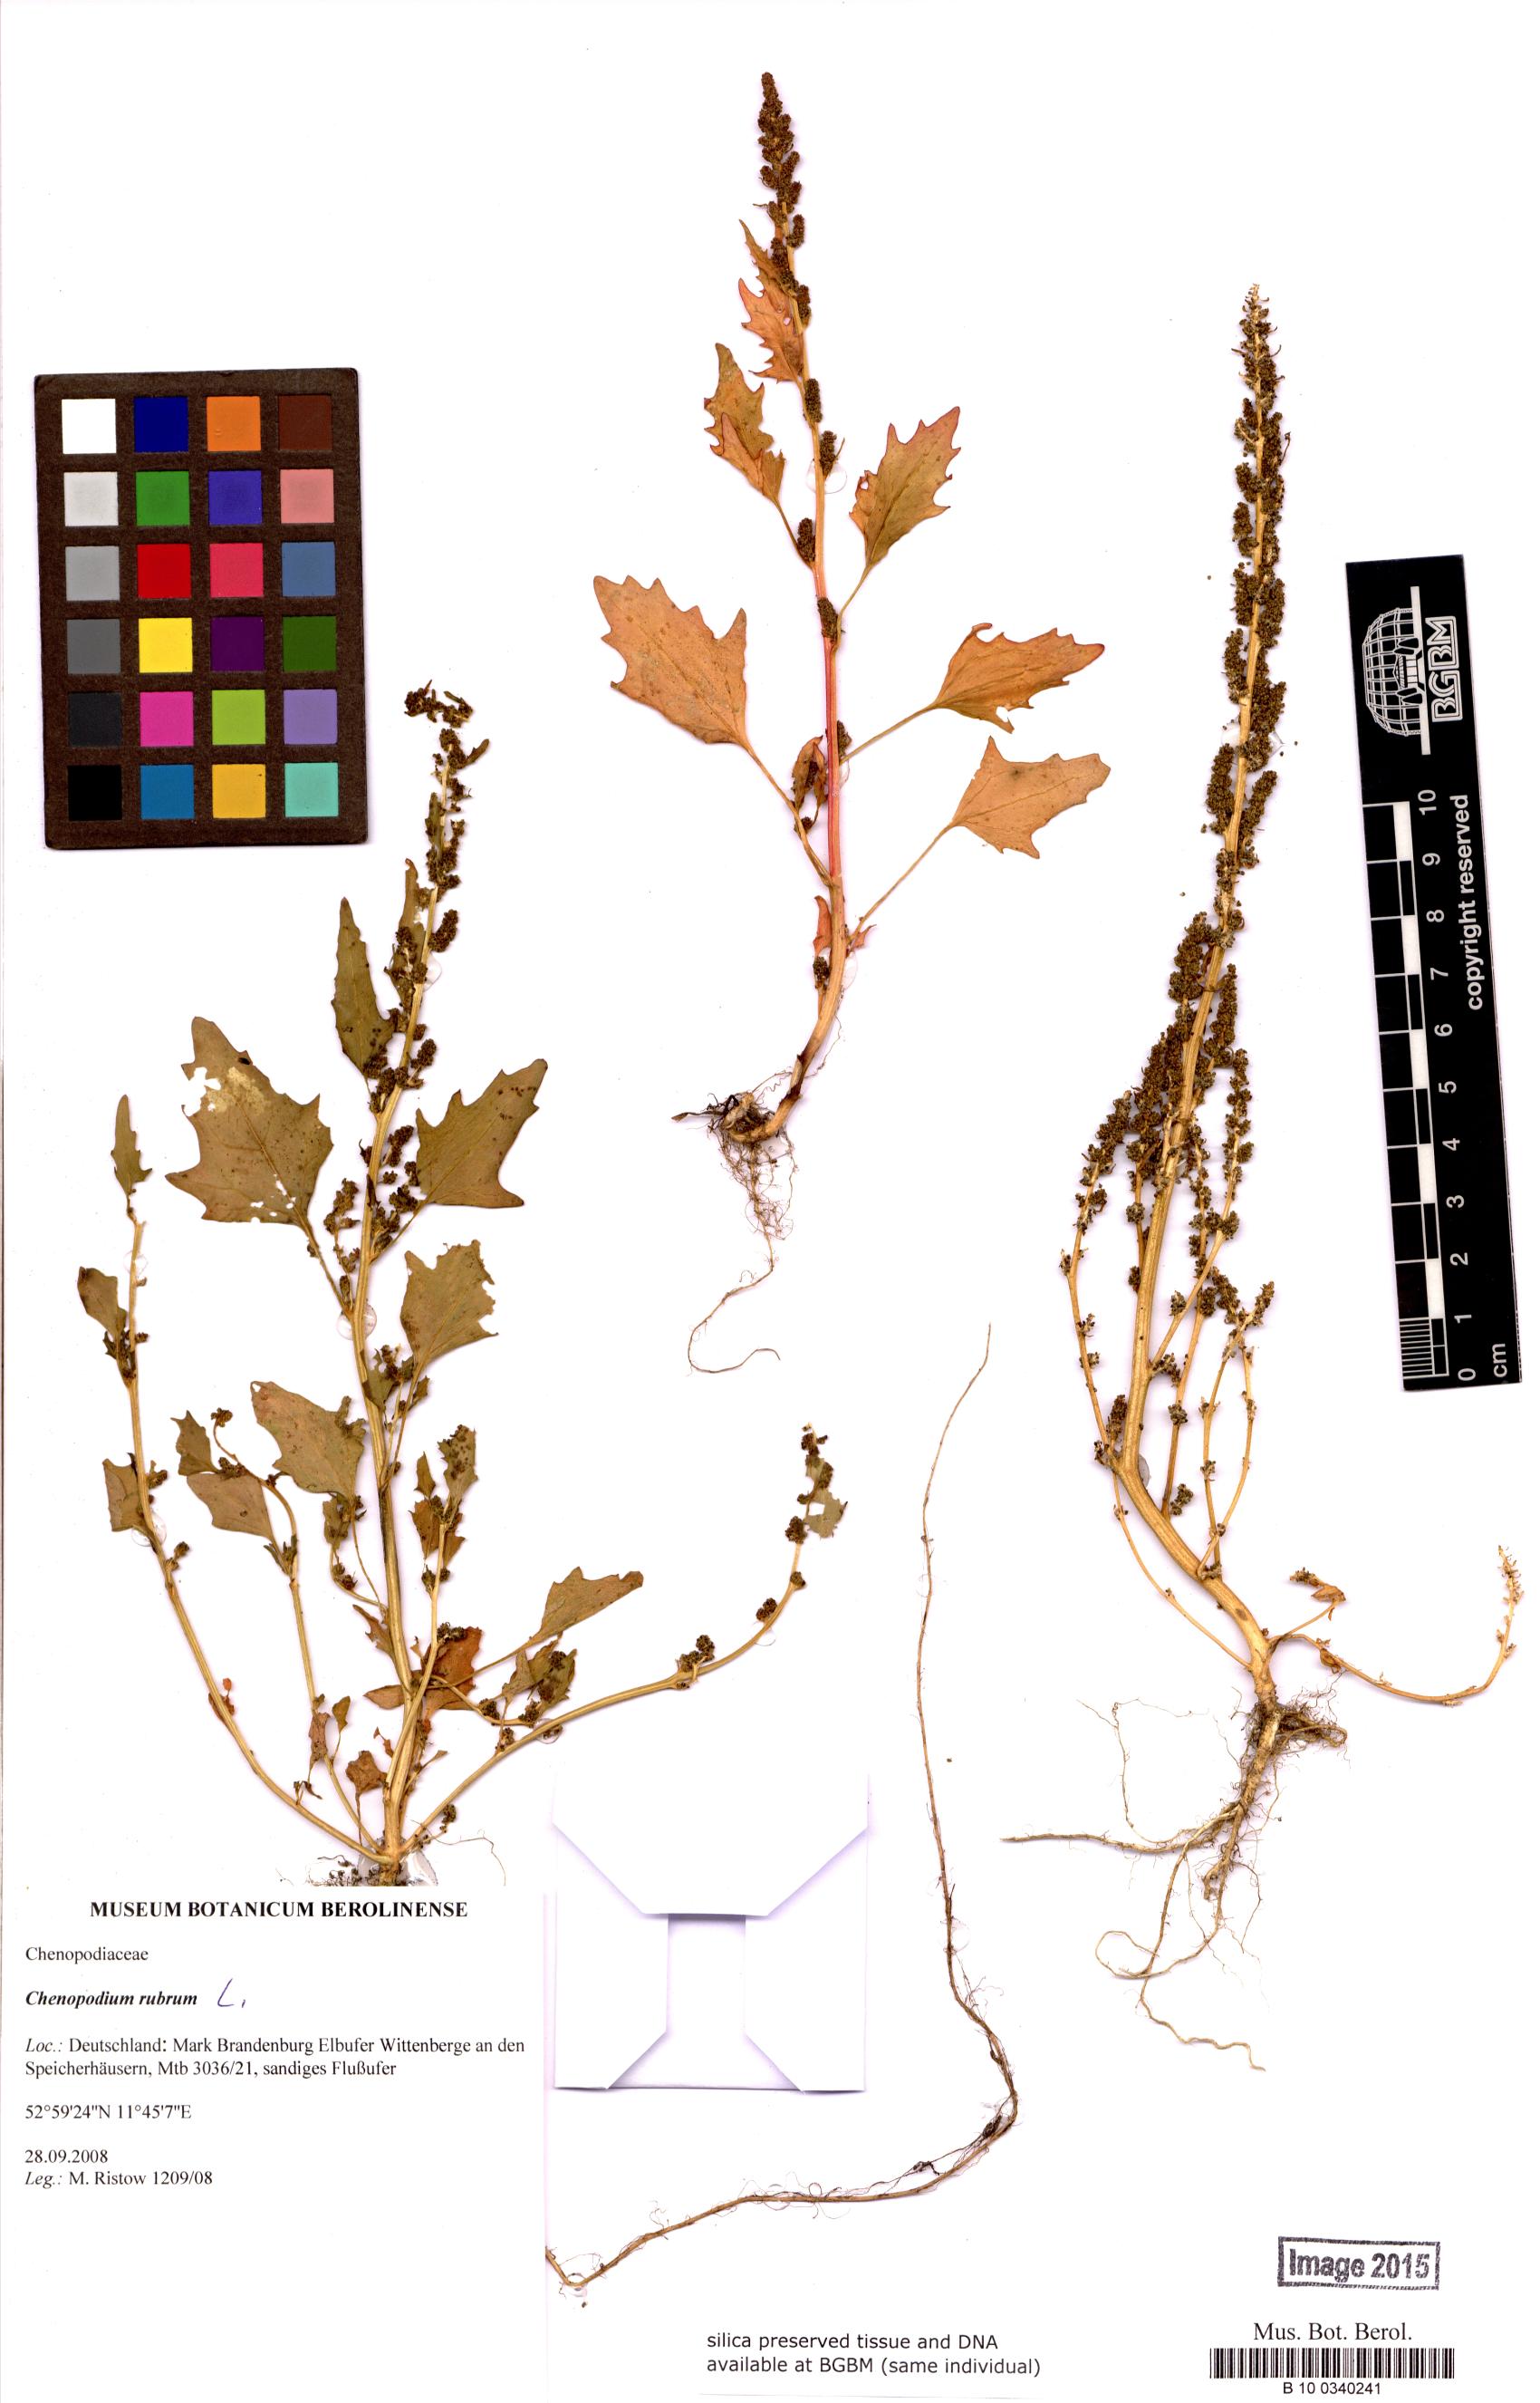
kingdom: Plantae
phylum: Tracheophyta
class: Magnoliopsida
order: Caryophyllales
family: Amaranthaceae
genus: Oxybasis
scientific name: Oxybasis rubra
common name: Red goosefoot
